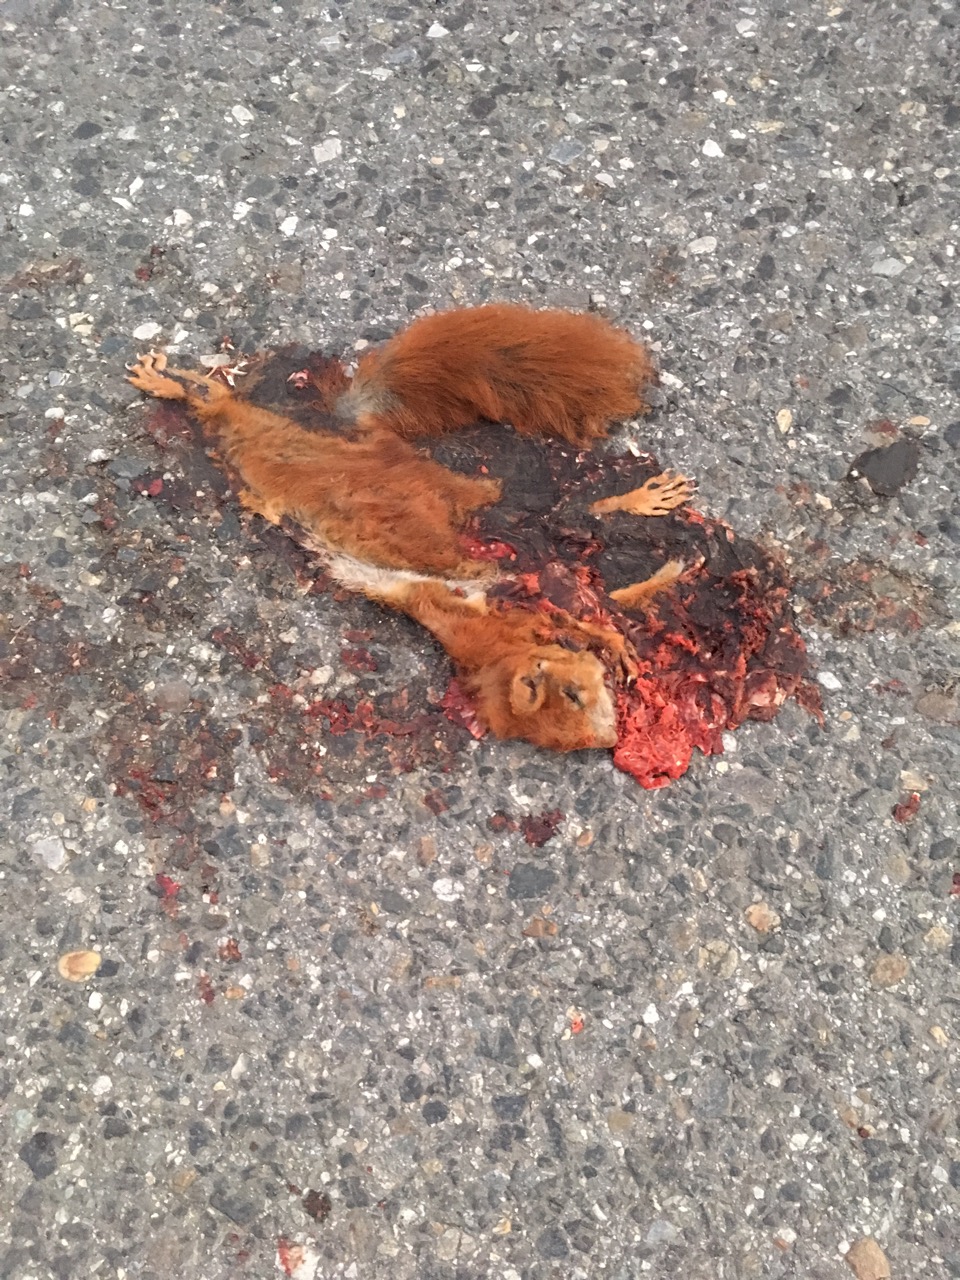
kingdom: Animalia
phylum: Chordata
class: Mammalia
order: Rodentia
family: Sciuridae
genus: Sciurus
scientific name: Sciurus vulgaris
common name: Eurasian red squirrel
